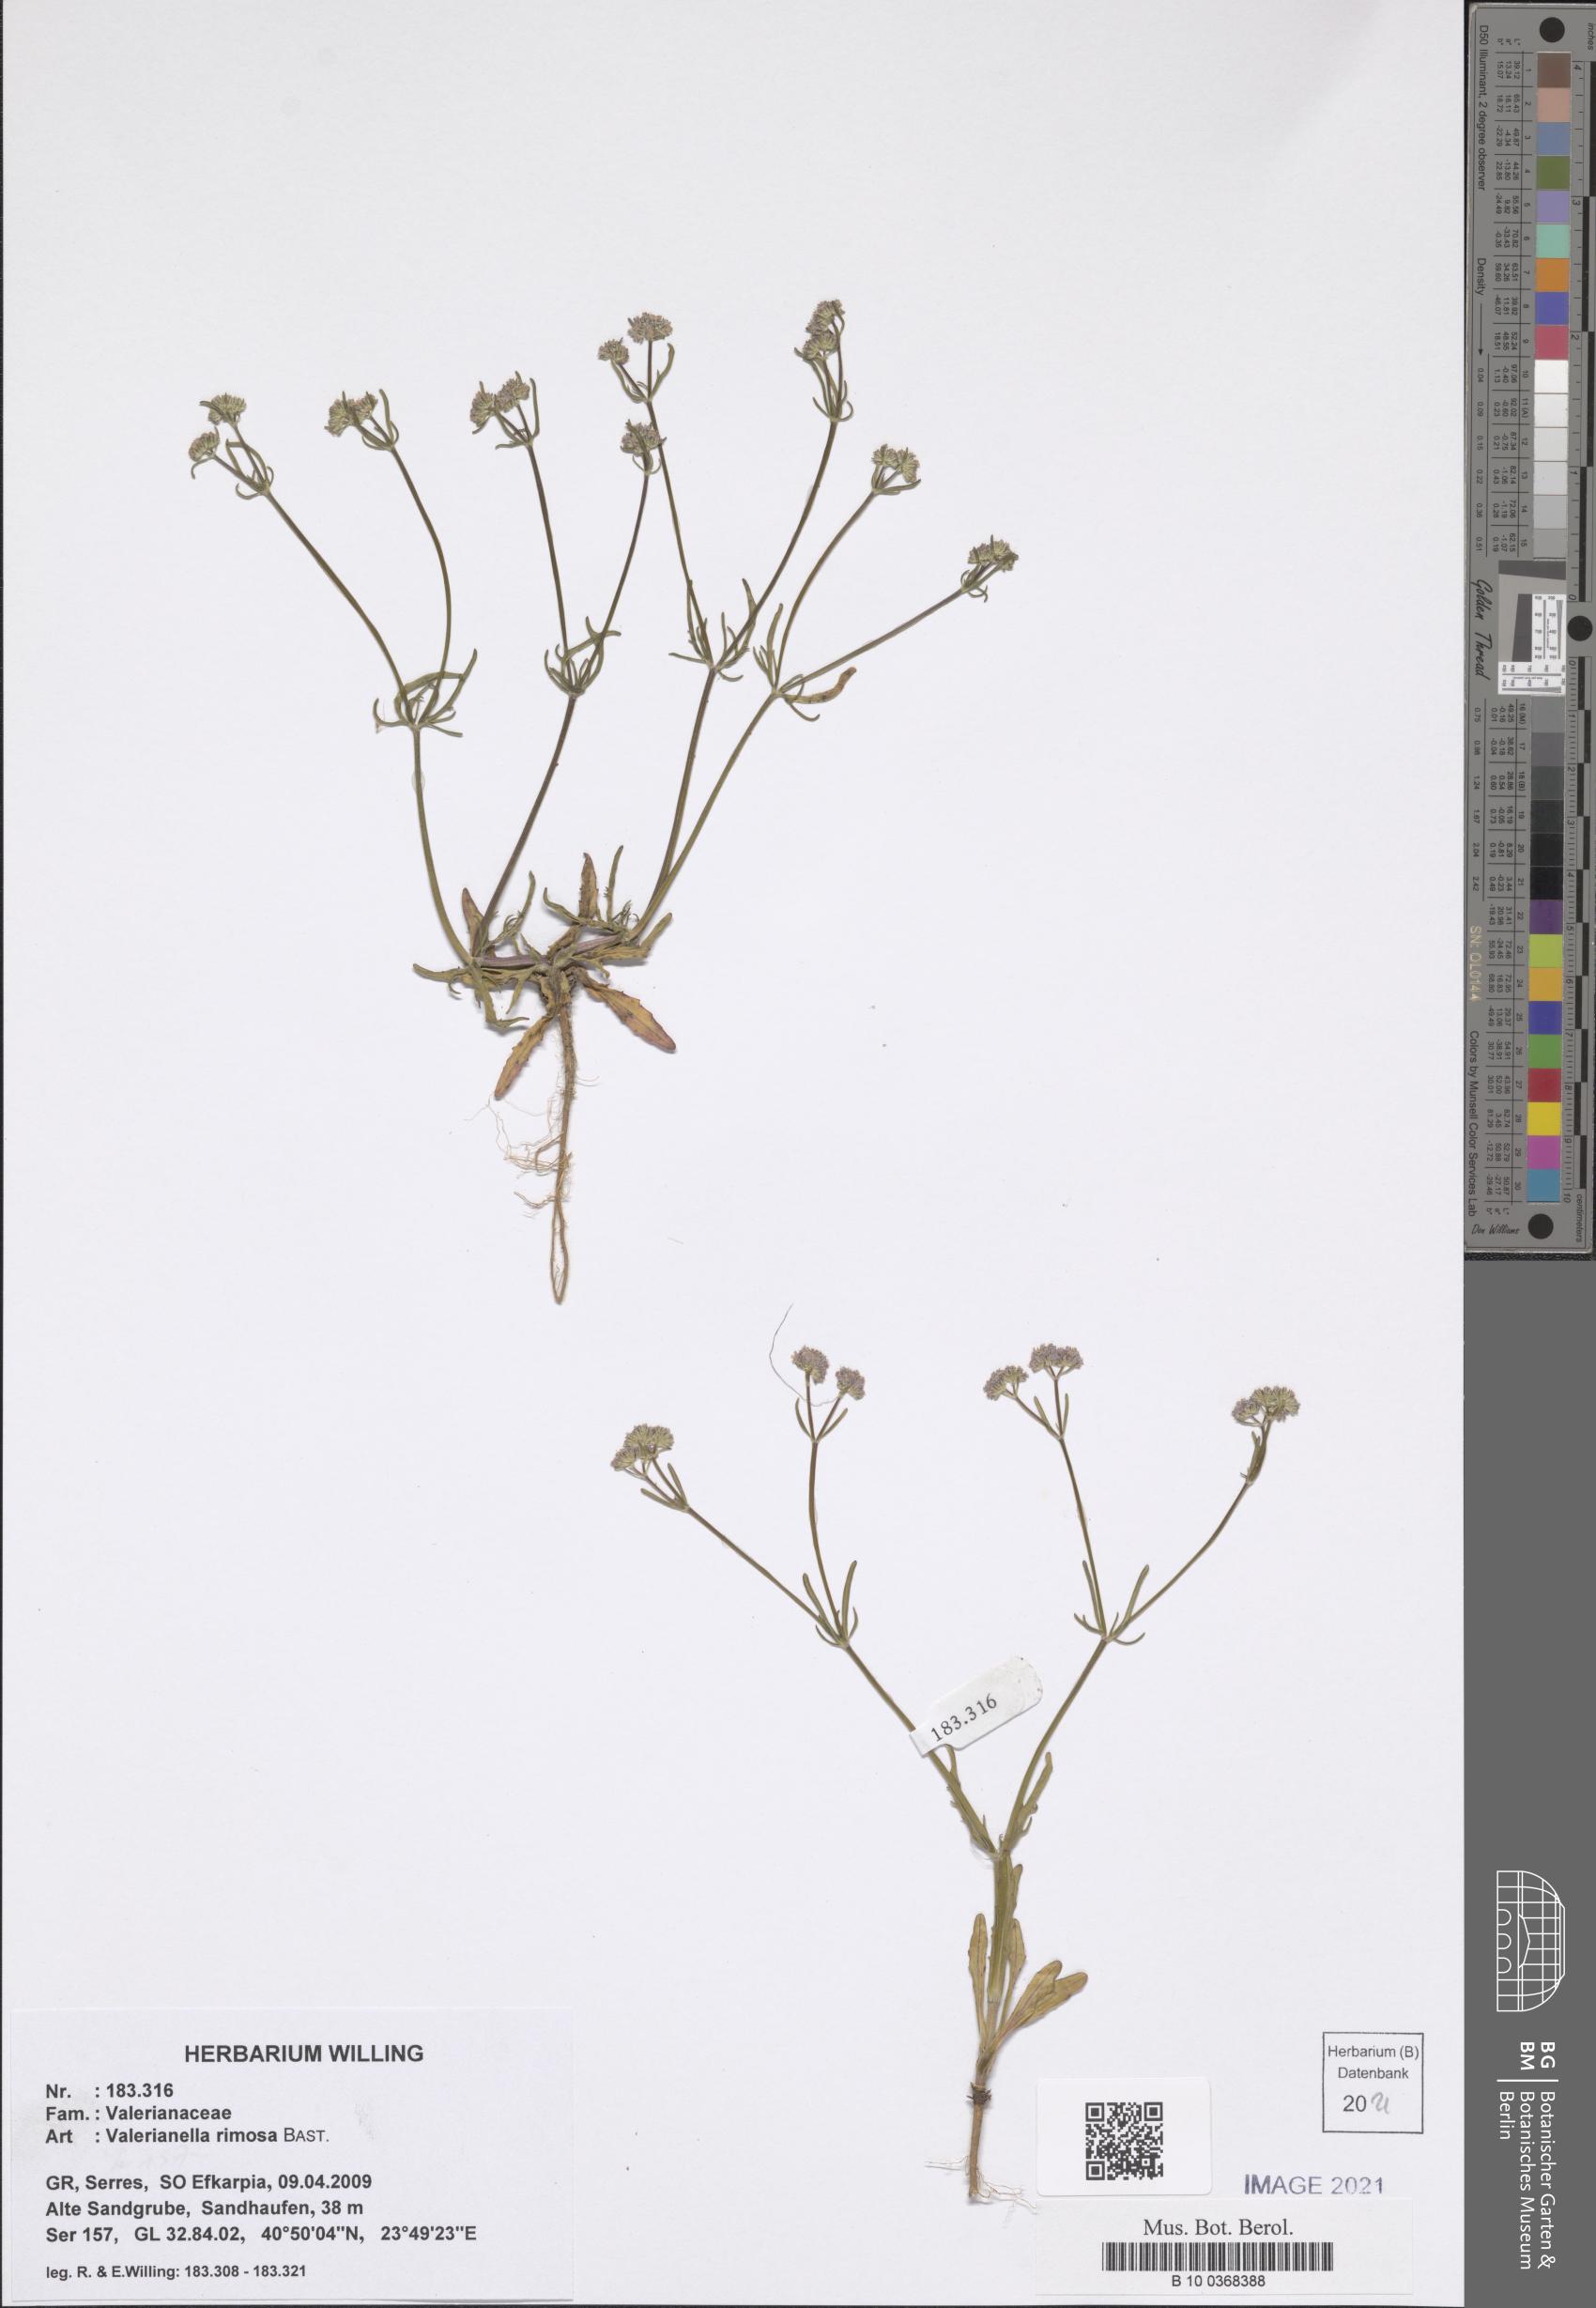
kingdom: Plantae
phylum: Tracheophyta
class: Magnoliopsida
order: Dipsacales
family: Caprifoliaceae
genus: Valerianella
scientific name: Valerianella rimosa
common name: Broad-fruited cornsalad
